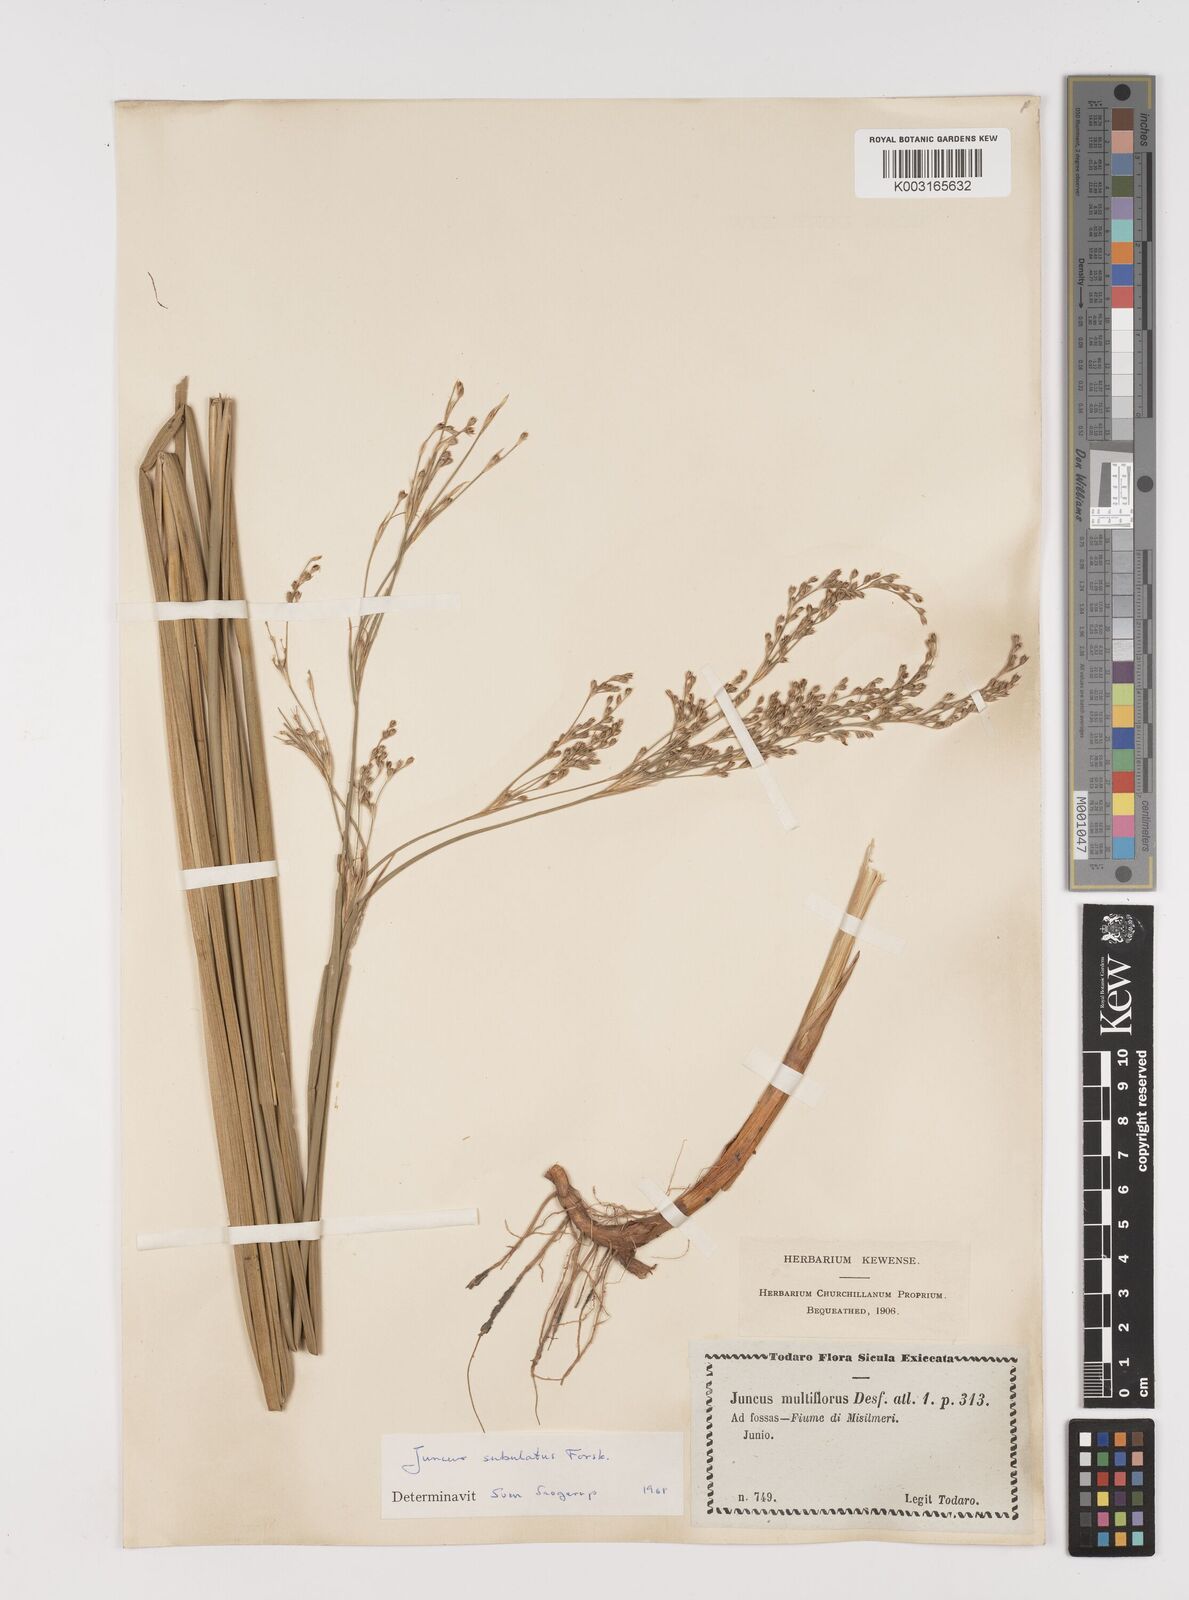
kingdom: Plantae
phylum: Tracheophyta
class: Liliopsida
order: Poales
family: Juncaceae
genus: Juncus
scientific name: Juncus subulatus
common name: Somerset rush
